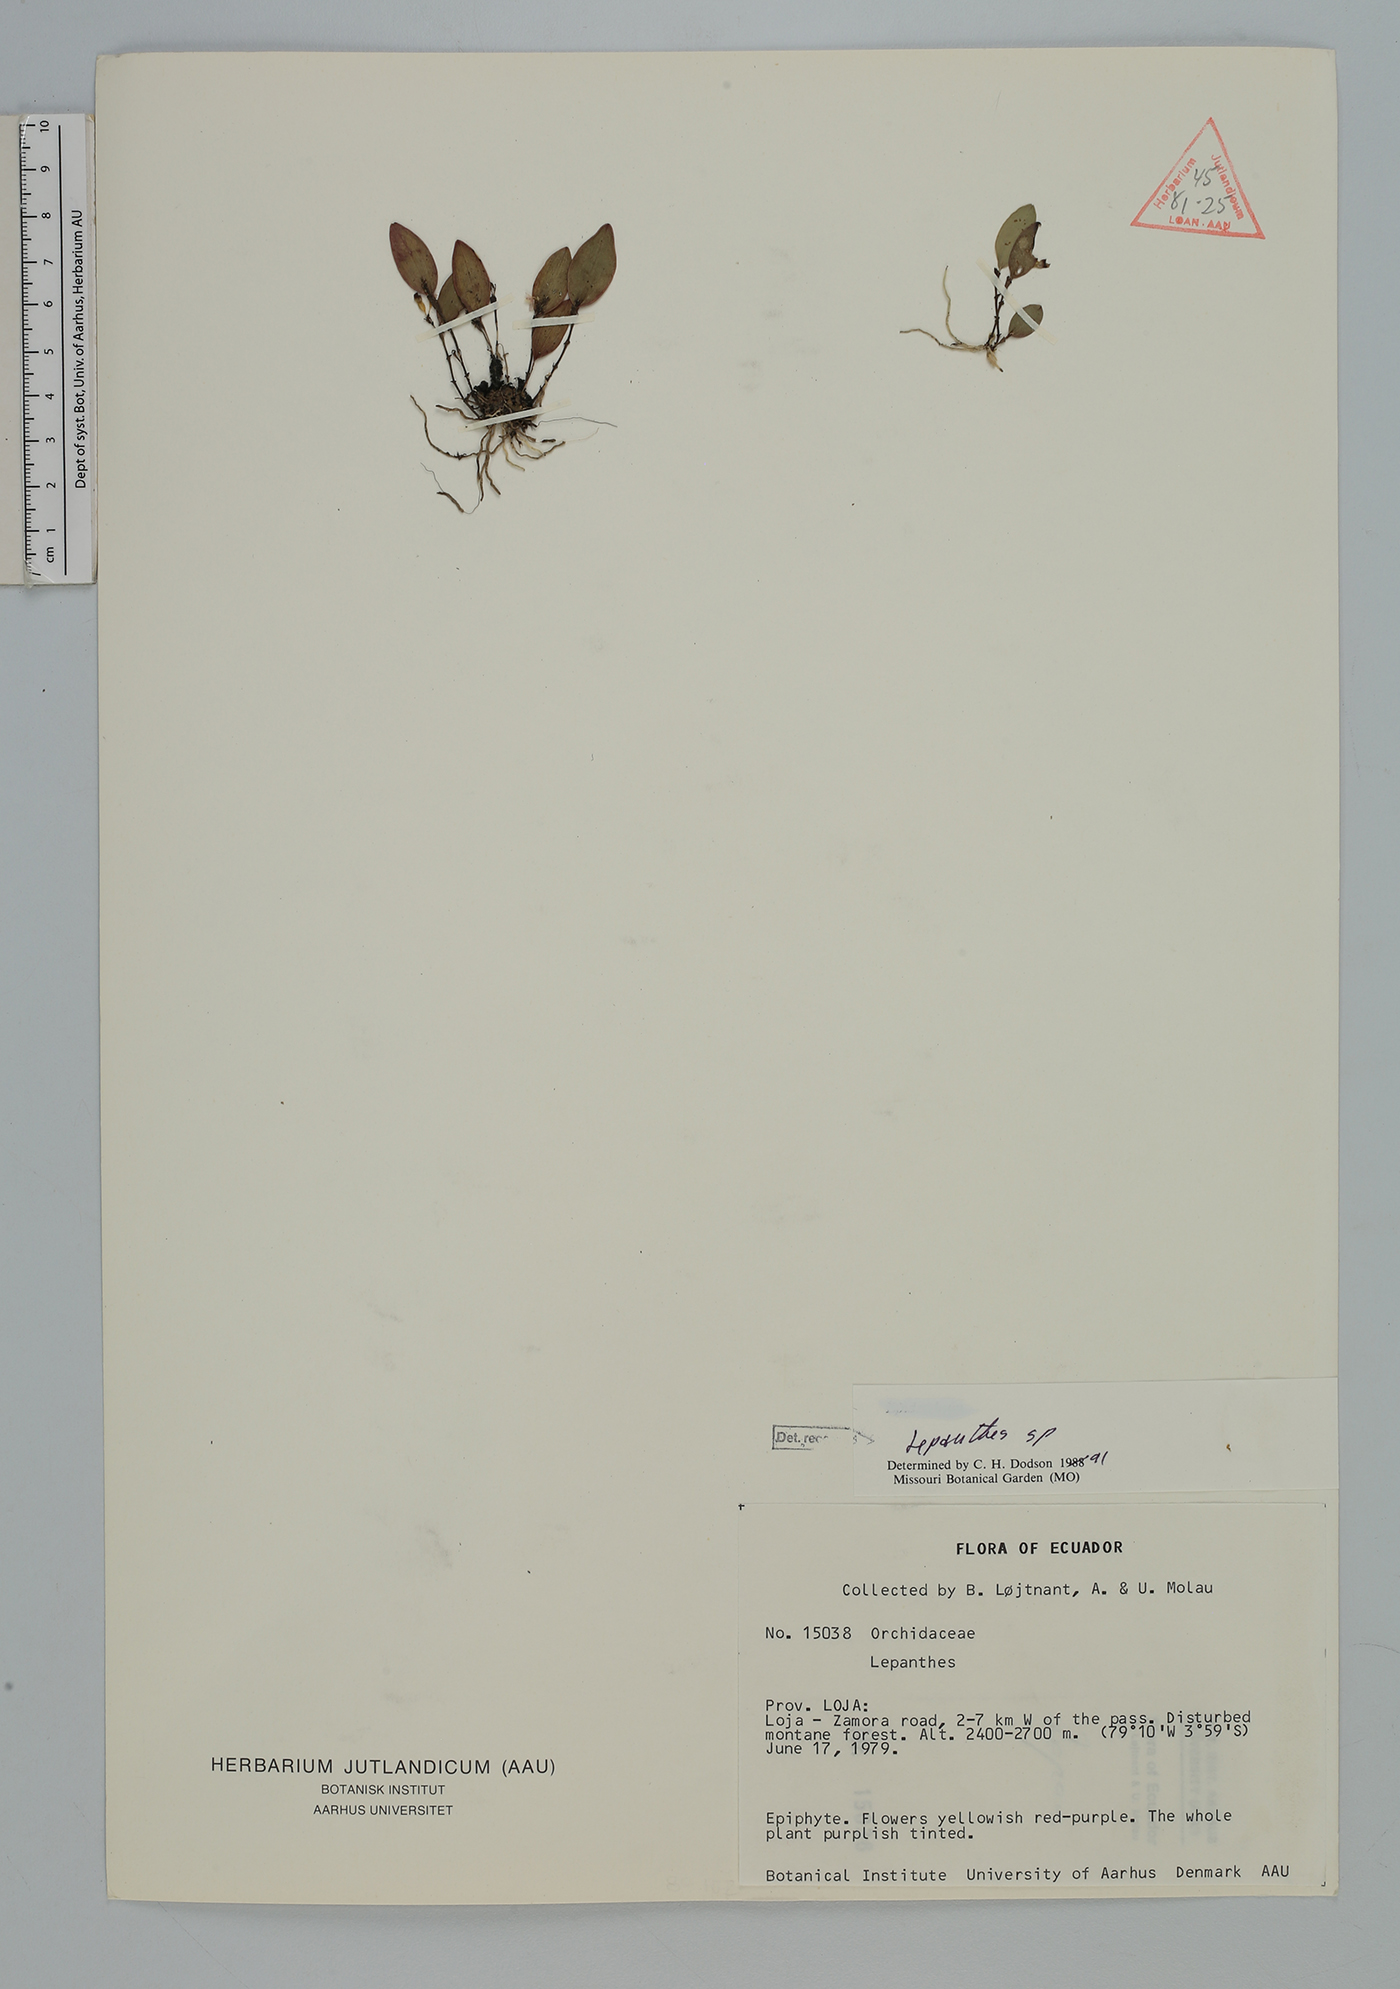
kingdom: Plantae
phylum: Tracheophyta
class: Liliopsida
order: Asparagales
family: Orchidaceae
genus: Lepanthes
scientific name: Lepanthes
